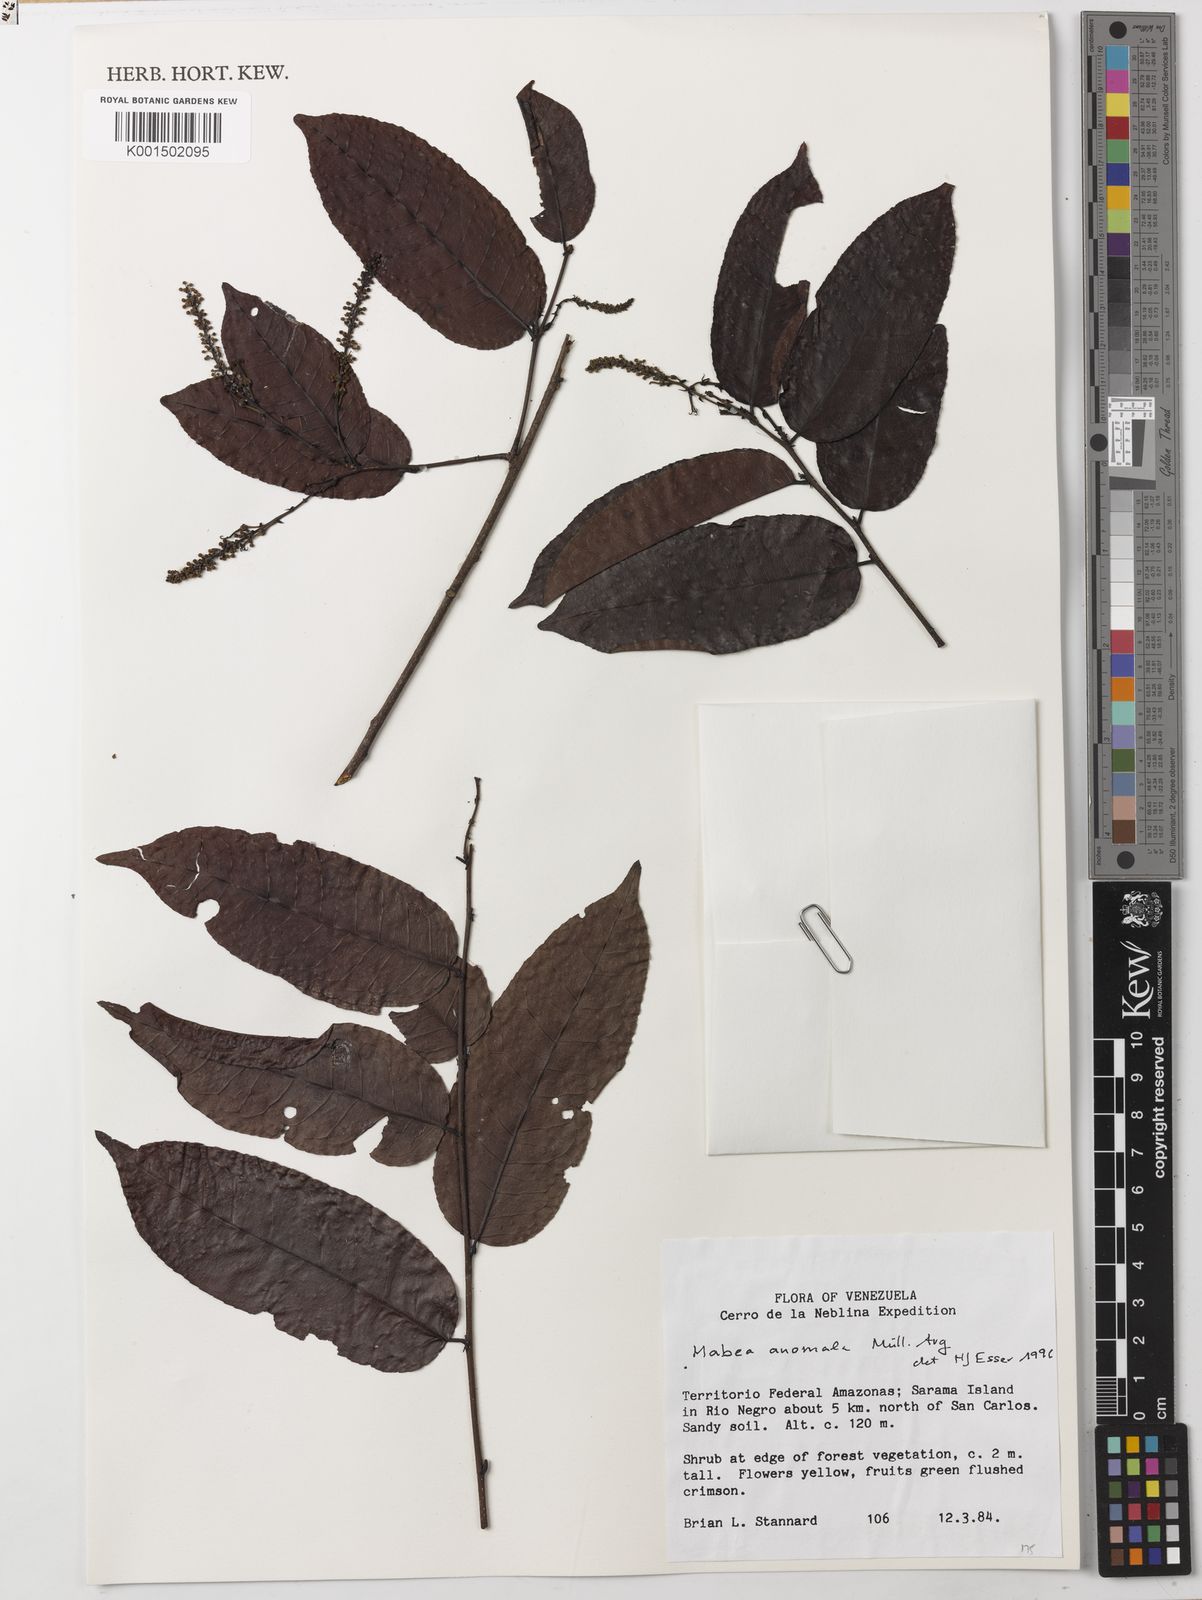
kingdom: Plantae
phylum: Tracheophyta
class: Magnoliopsida
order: Malpighiales
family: Euphorbiaceae
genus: Mabea
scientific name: Mabea anomala
